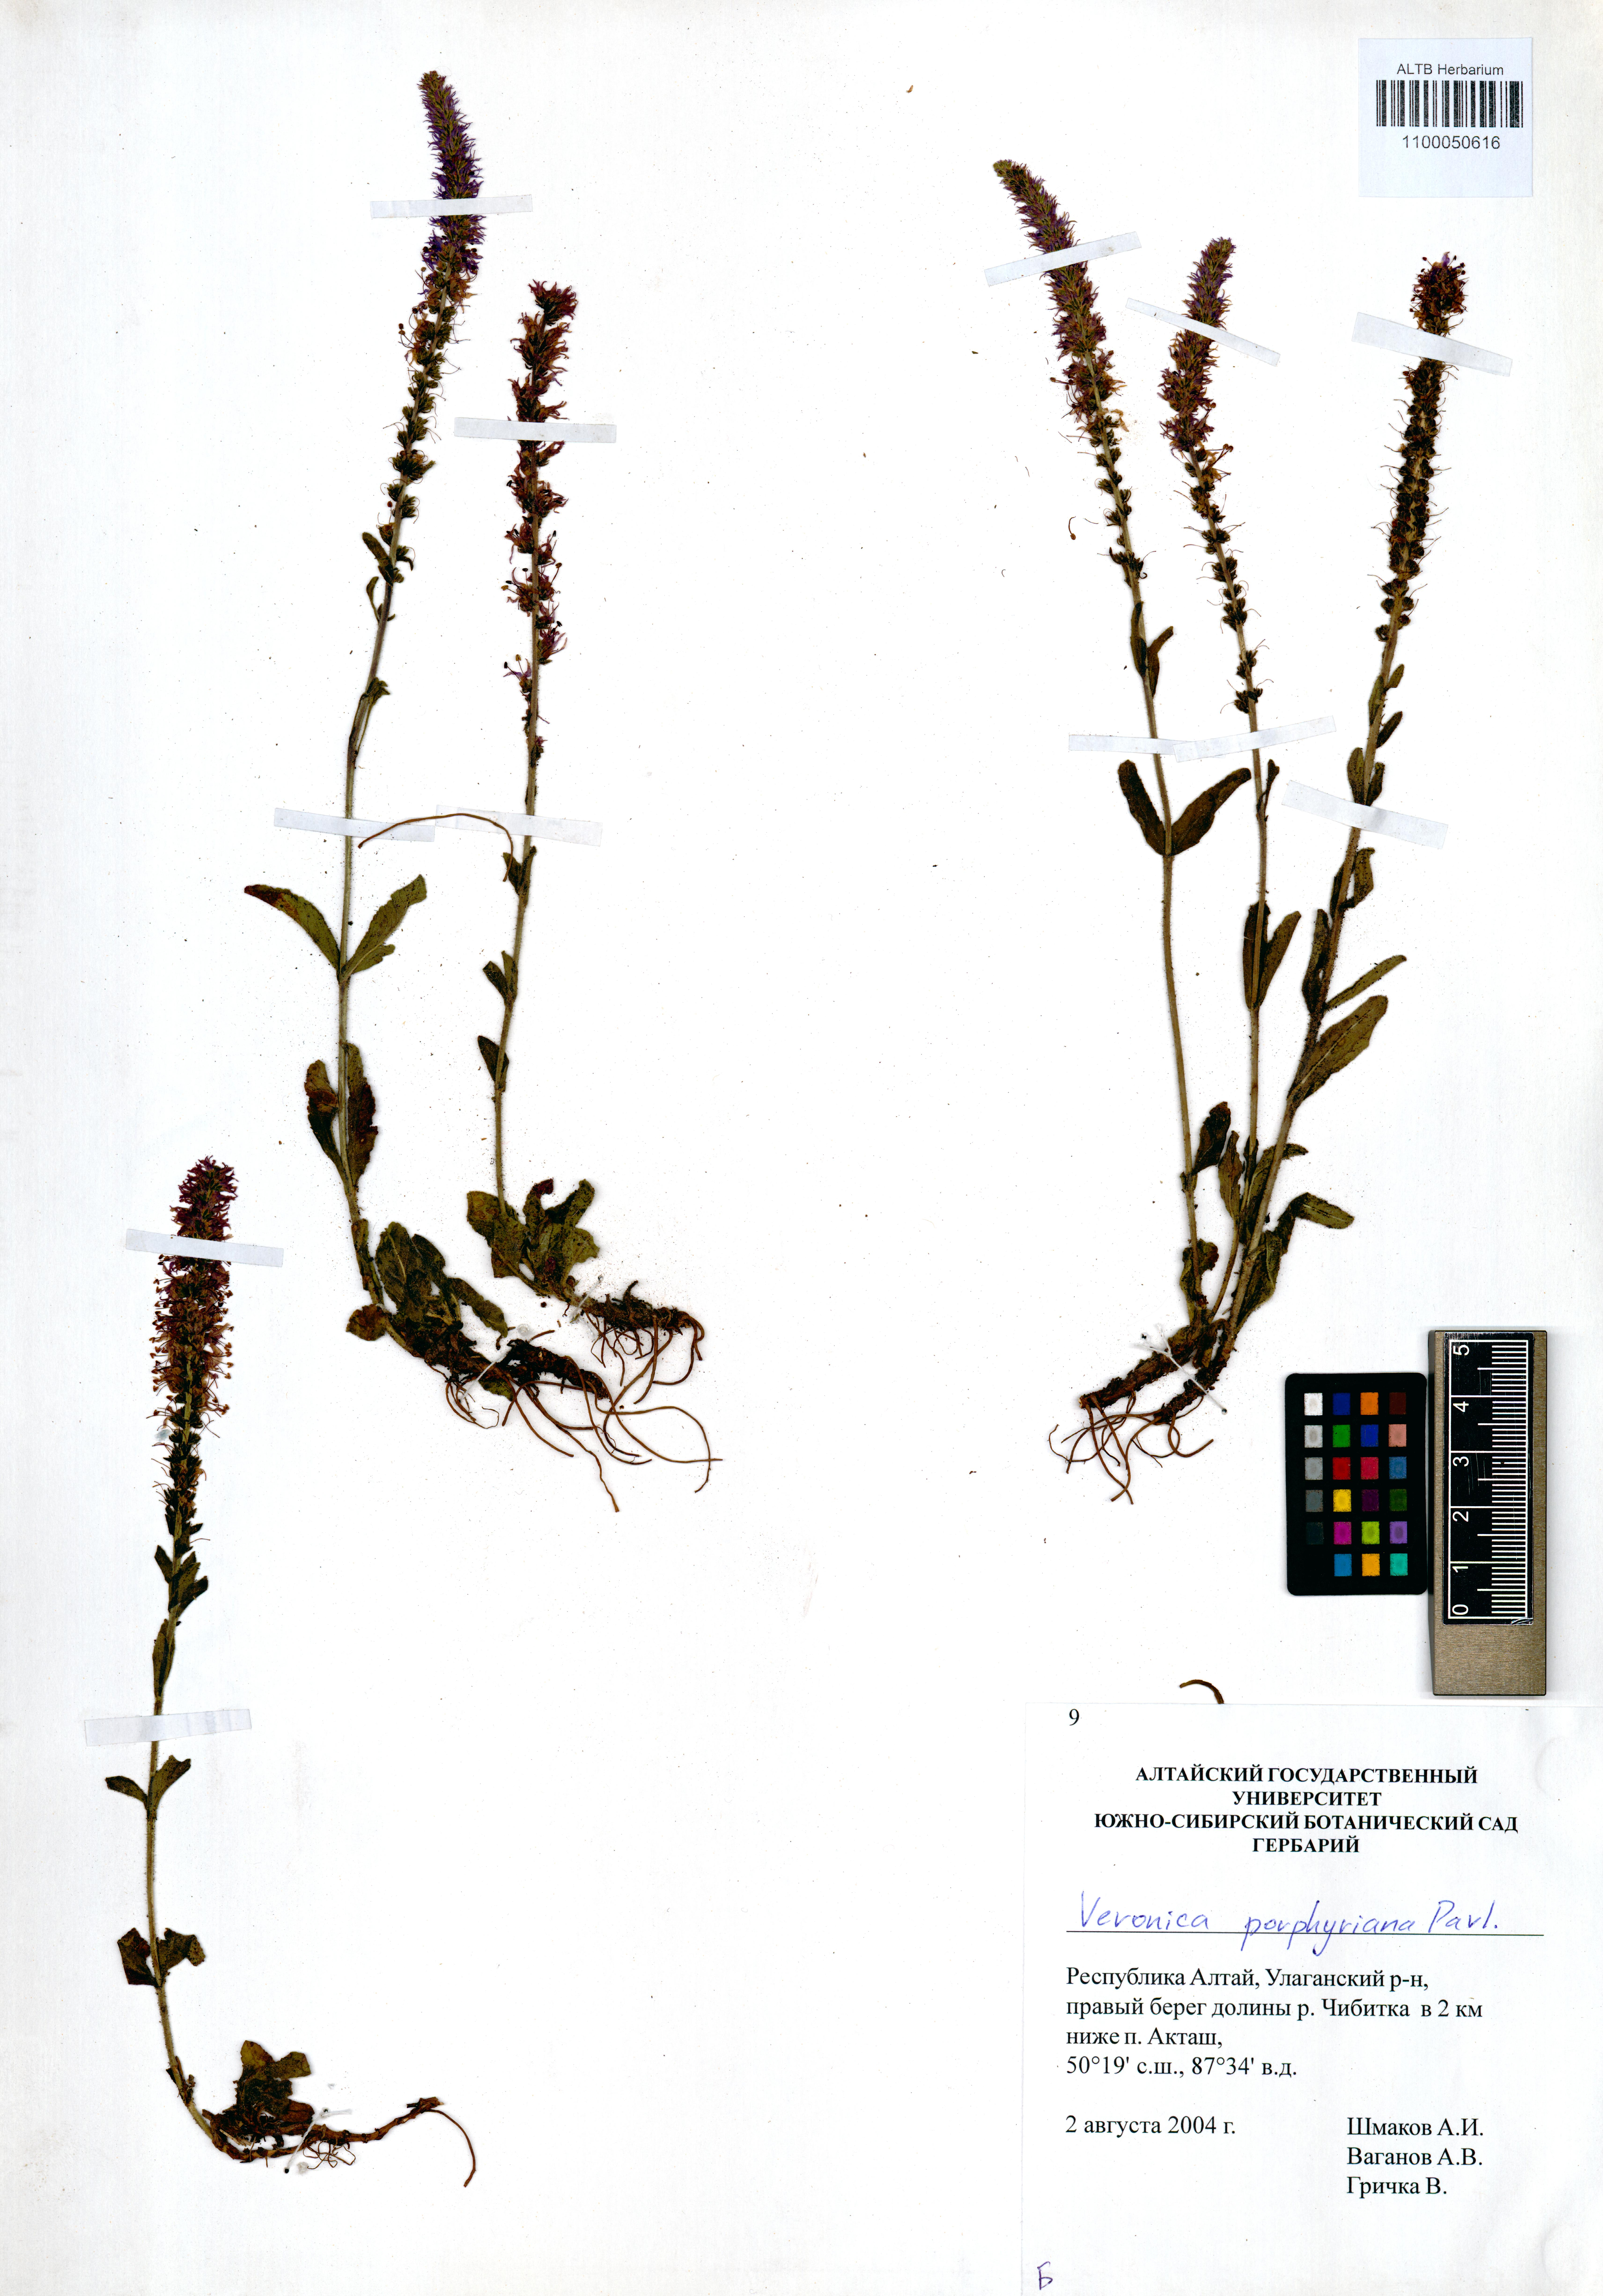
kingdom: Plantae
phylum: Tracheophyta
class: Magnoliopsida
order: Lamiales
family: Plantaginaceae
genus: Veronica
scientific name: Veronica porphyriana
